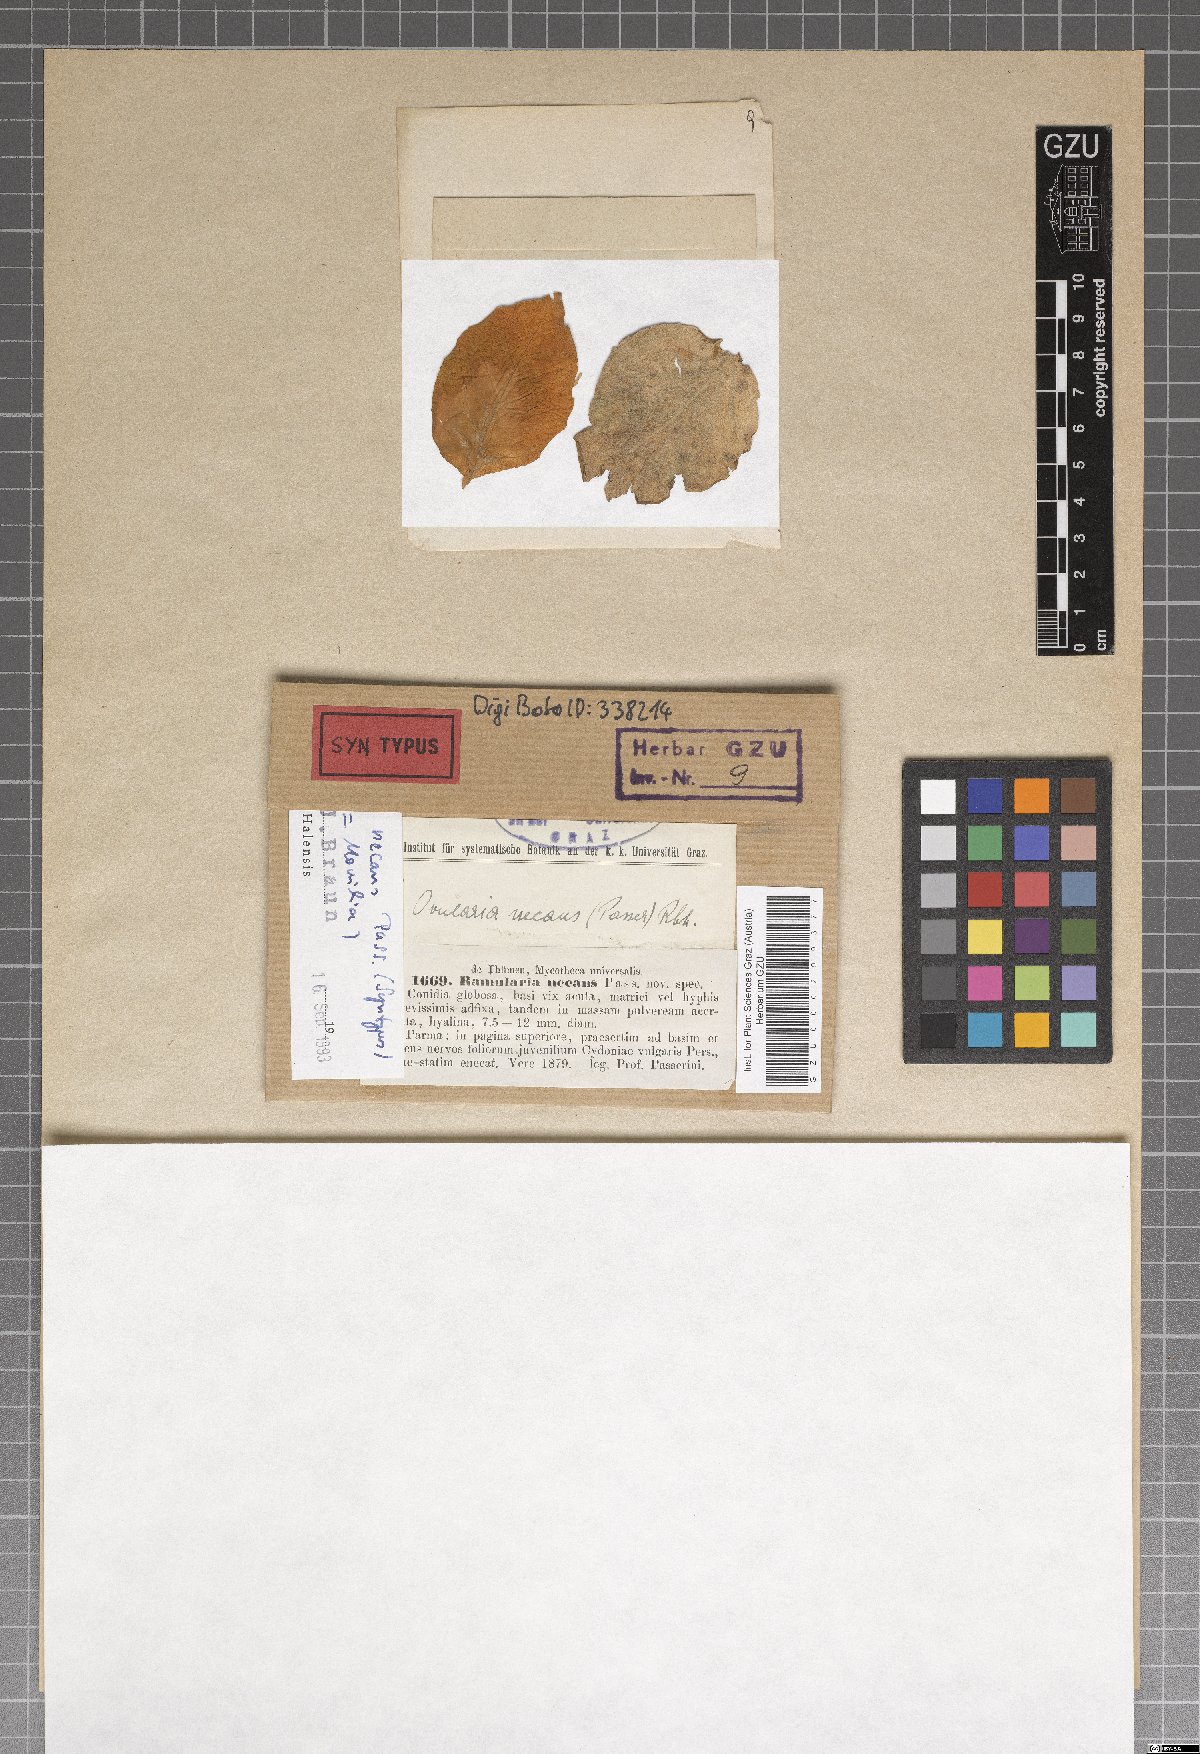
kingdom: Fungi
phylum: Ascomycota
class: Leotiomycetes
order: Helotiales
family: Sclerotiniaceae
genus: Monilinia
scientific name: Monilinia mespili
